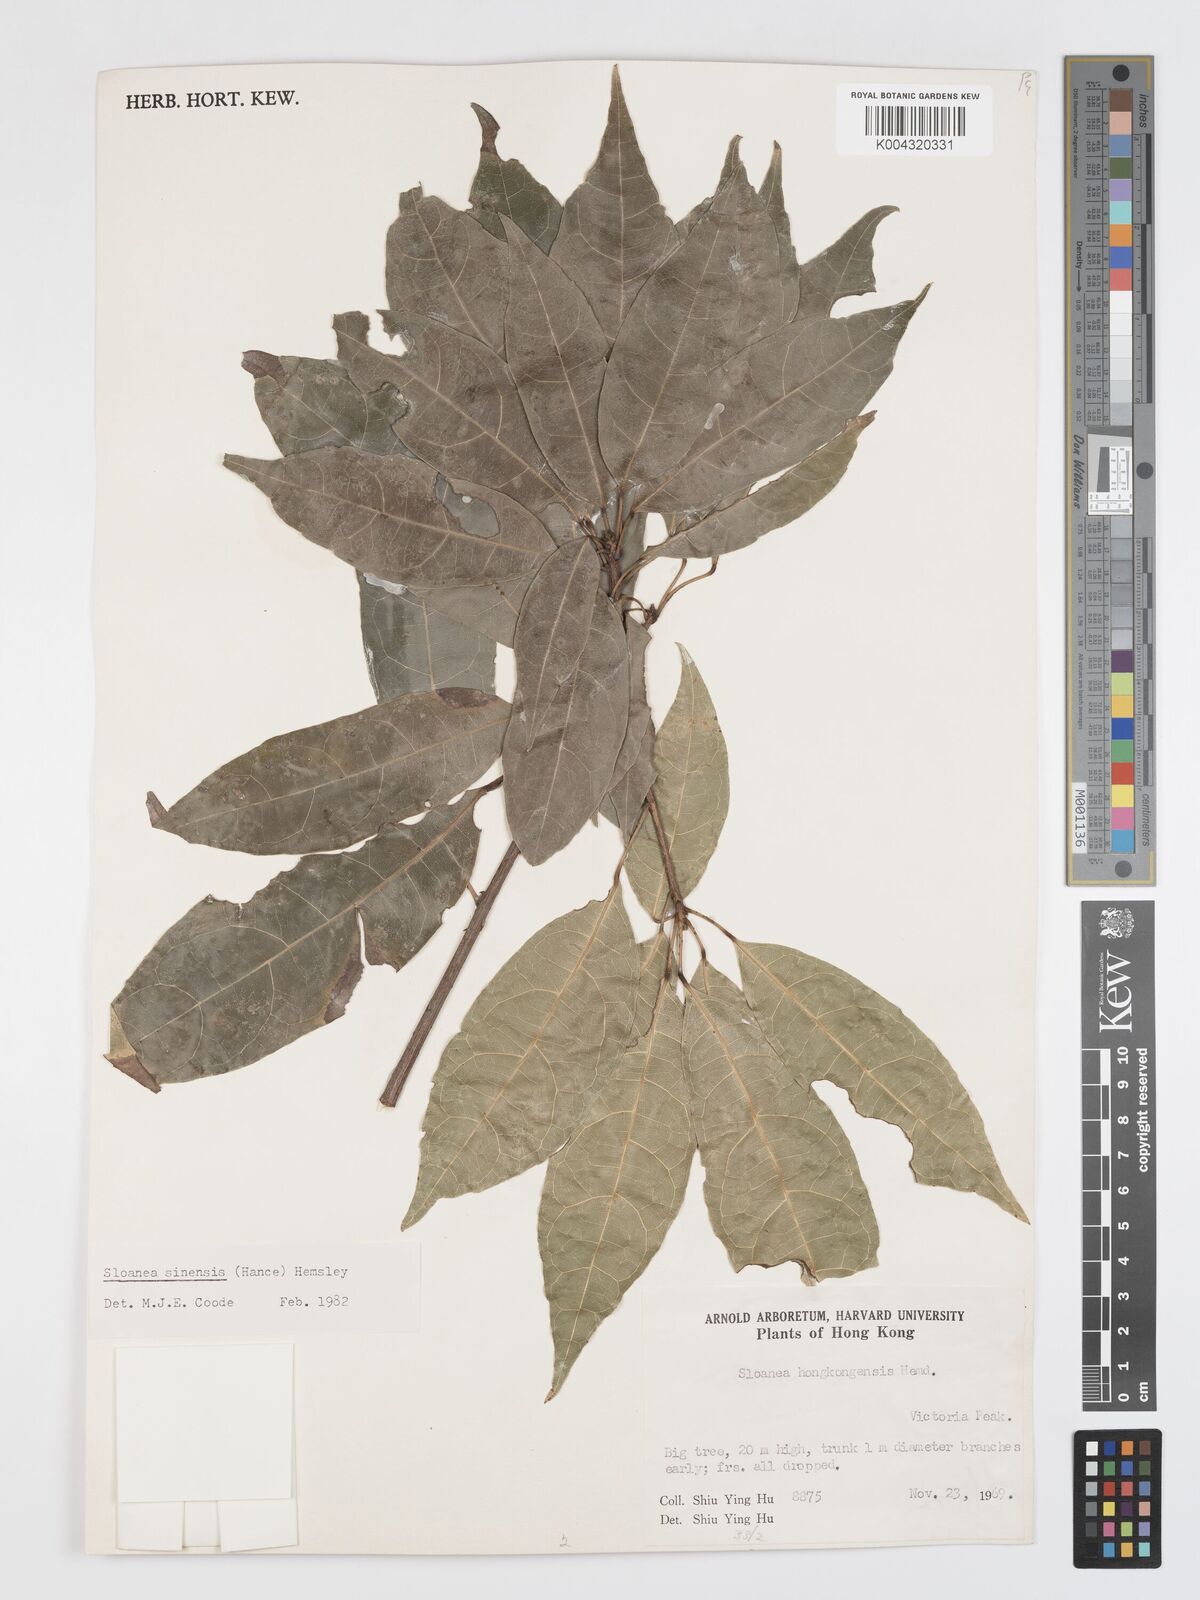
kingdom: Plantae
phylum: Tracheophyta
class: Magnoliopsida
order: Oxalidales
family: Elaeocarpaceae
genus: Sloanea
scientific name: Sloanea sinensis
